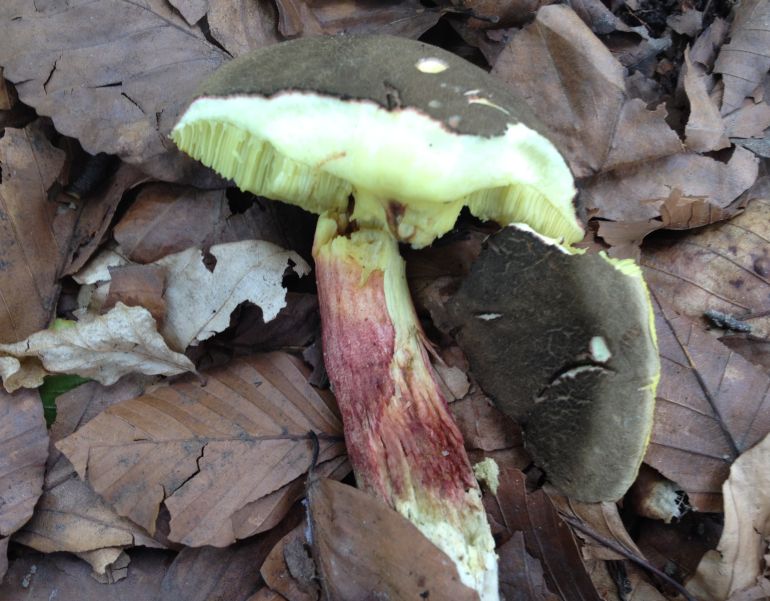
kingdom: Fungi
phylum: Basidiomycota
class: Agaricomycetes
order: Boletales
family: Boletaceae
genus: Xerocomellus
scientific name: Xerocomellus chrysenteron
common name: rødsprukken rørhat
